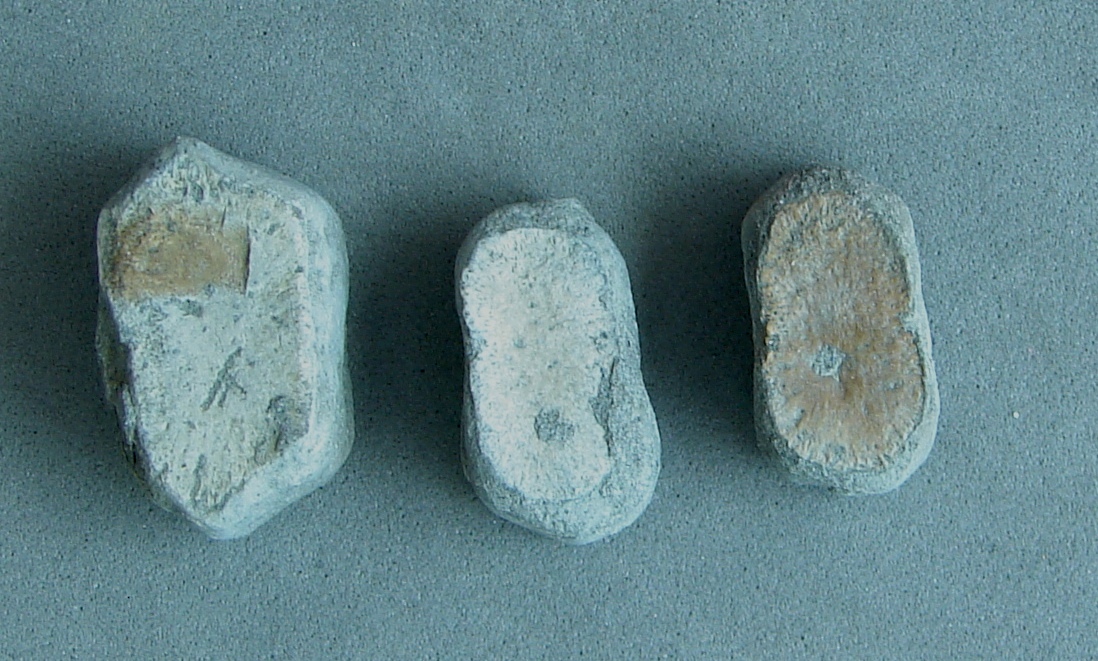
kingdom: Animalia
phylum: Chordata
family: Ichthyosauridae
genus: Ichthyosaurus
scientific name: Ichthyosaurus
